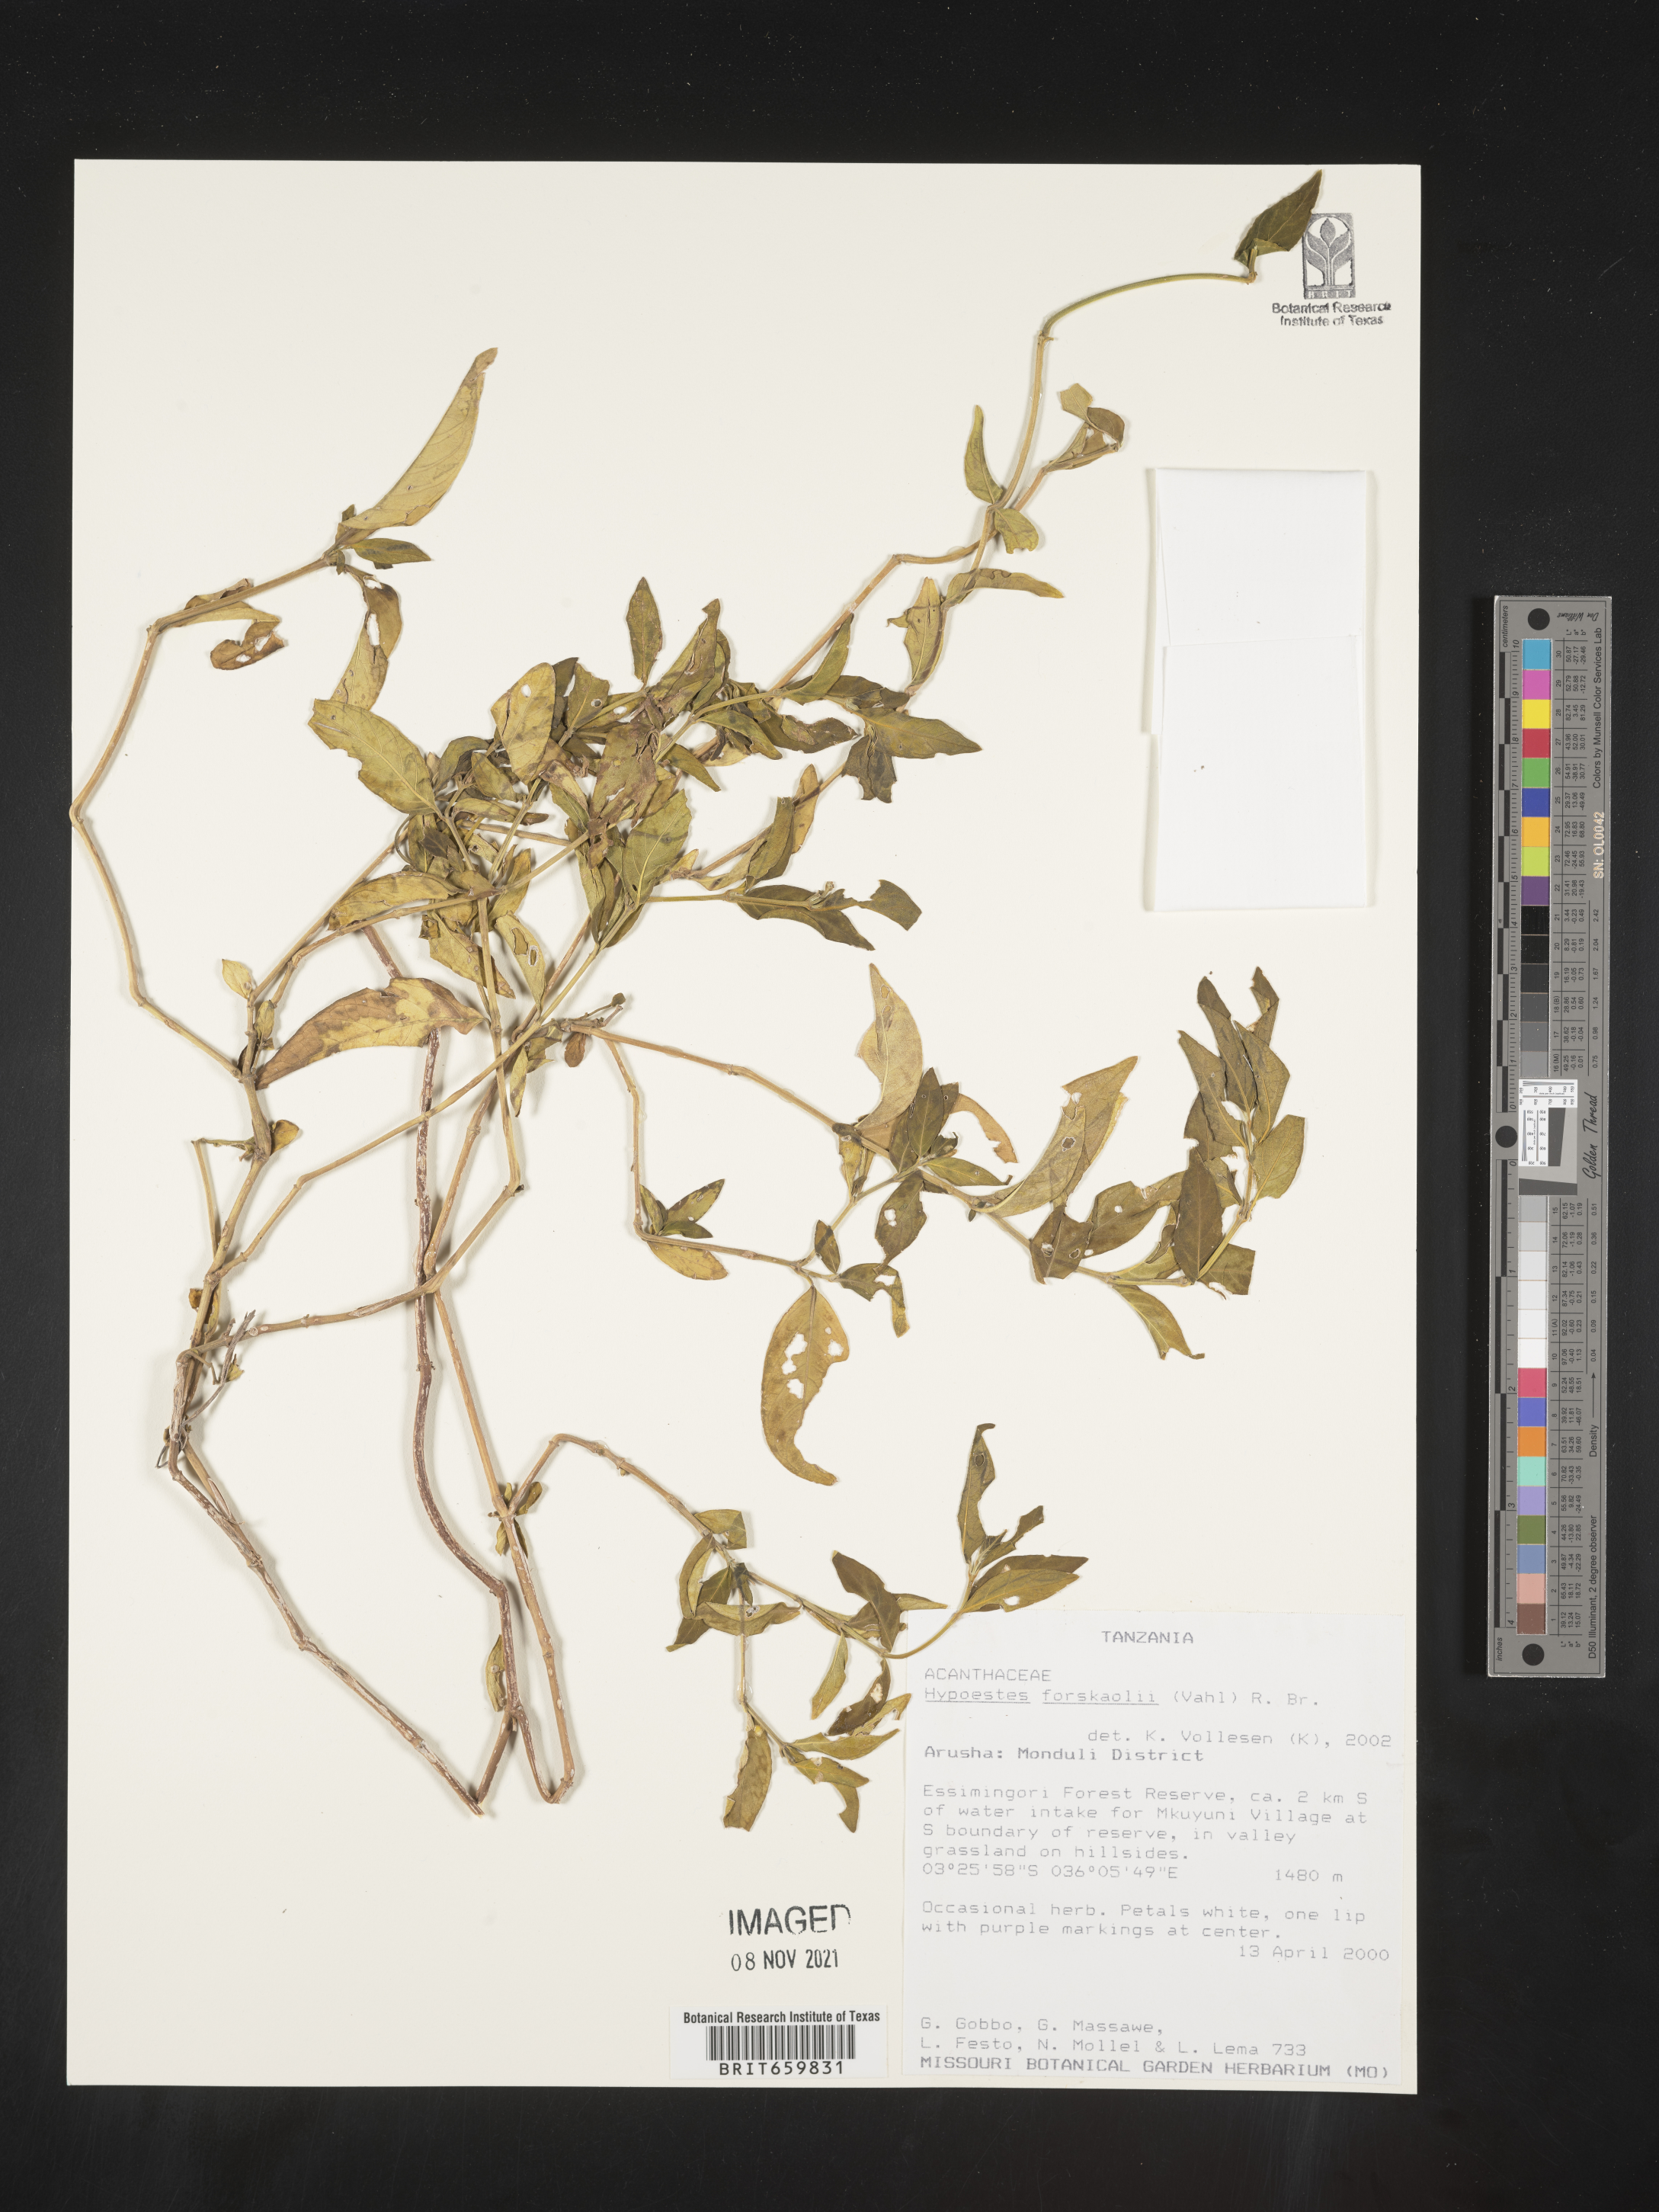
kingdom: Plantae
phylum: Tracheophyta
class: Magnoliopsida
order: Lamiales
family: Acanthaceae
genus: Hypoestes
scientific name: Hypoestes forskaolii
